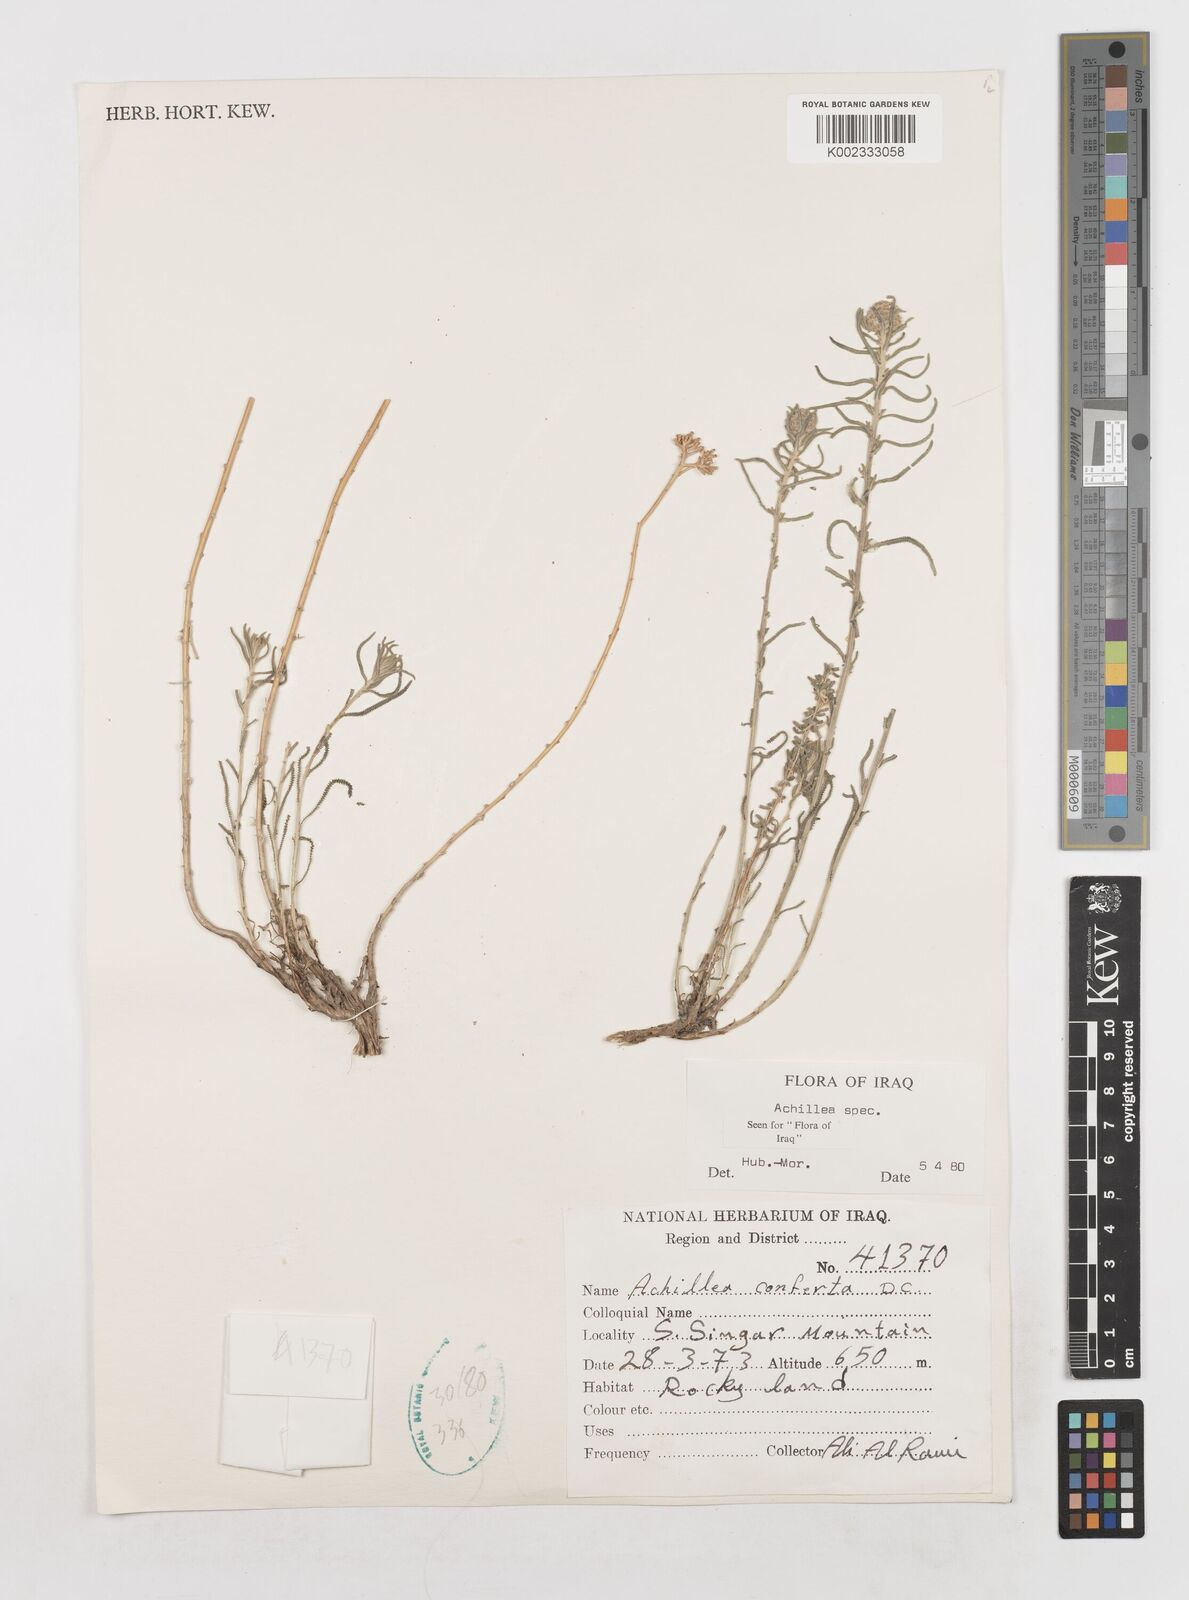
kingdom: Plantae
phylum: Tracheophyta
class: Magnoliopsida
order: Asterales
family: Asteraceae
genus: Achillea
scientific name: Achillea
